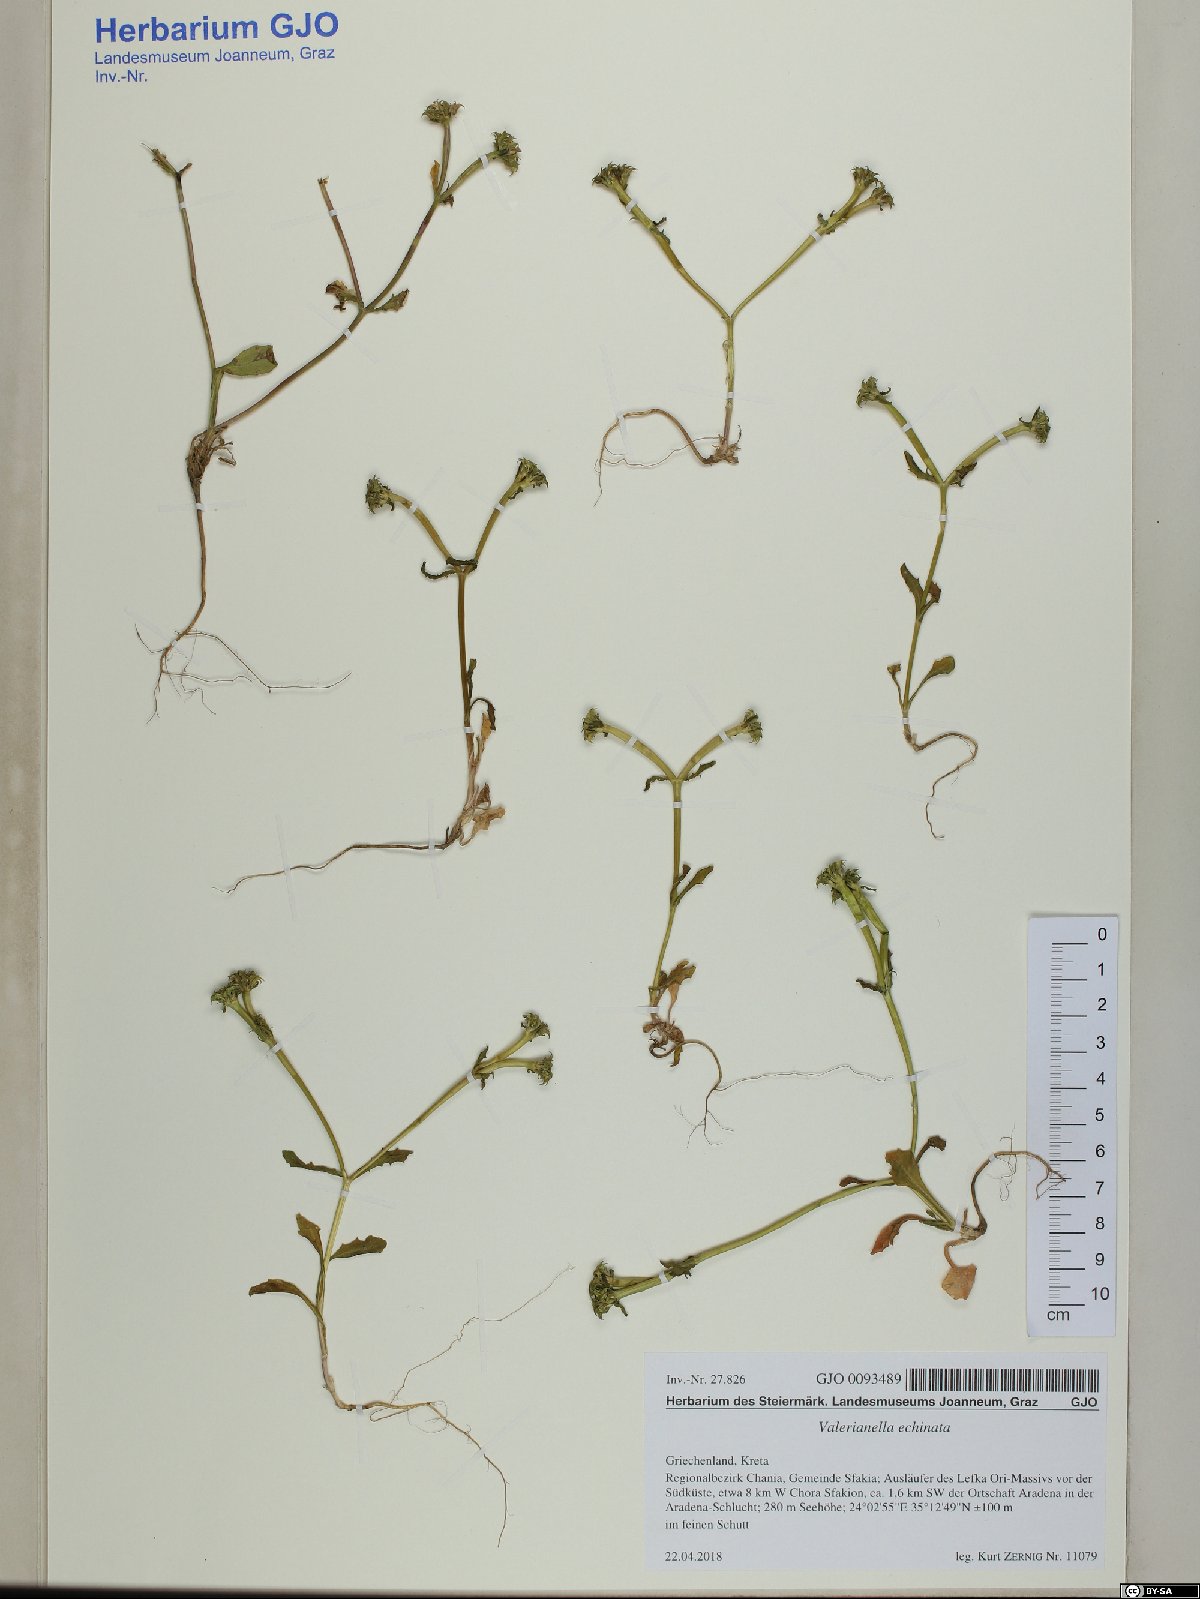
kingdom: Plantae
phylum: Tracheophyta
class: Magnoliopsida
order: Dipsacales
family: Caprifoliaceae
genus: Valerianella
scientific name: Valerianella echinata
